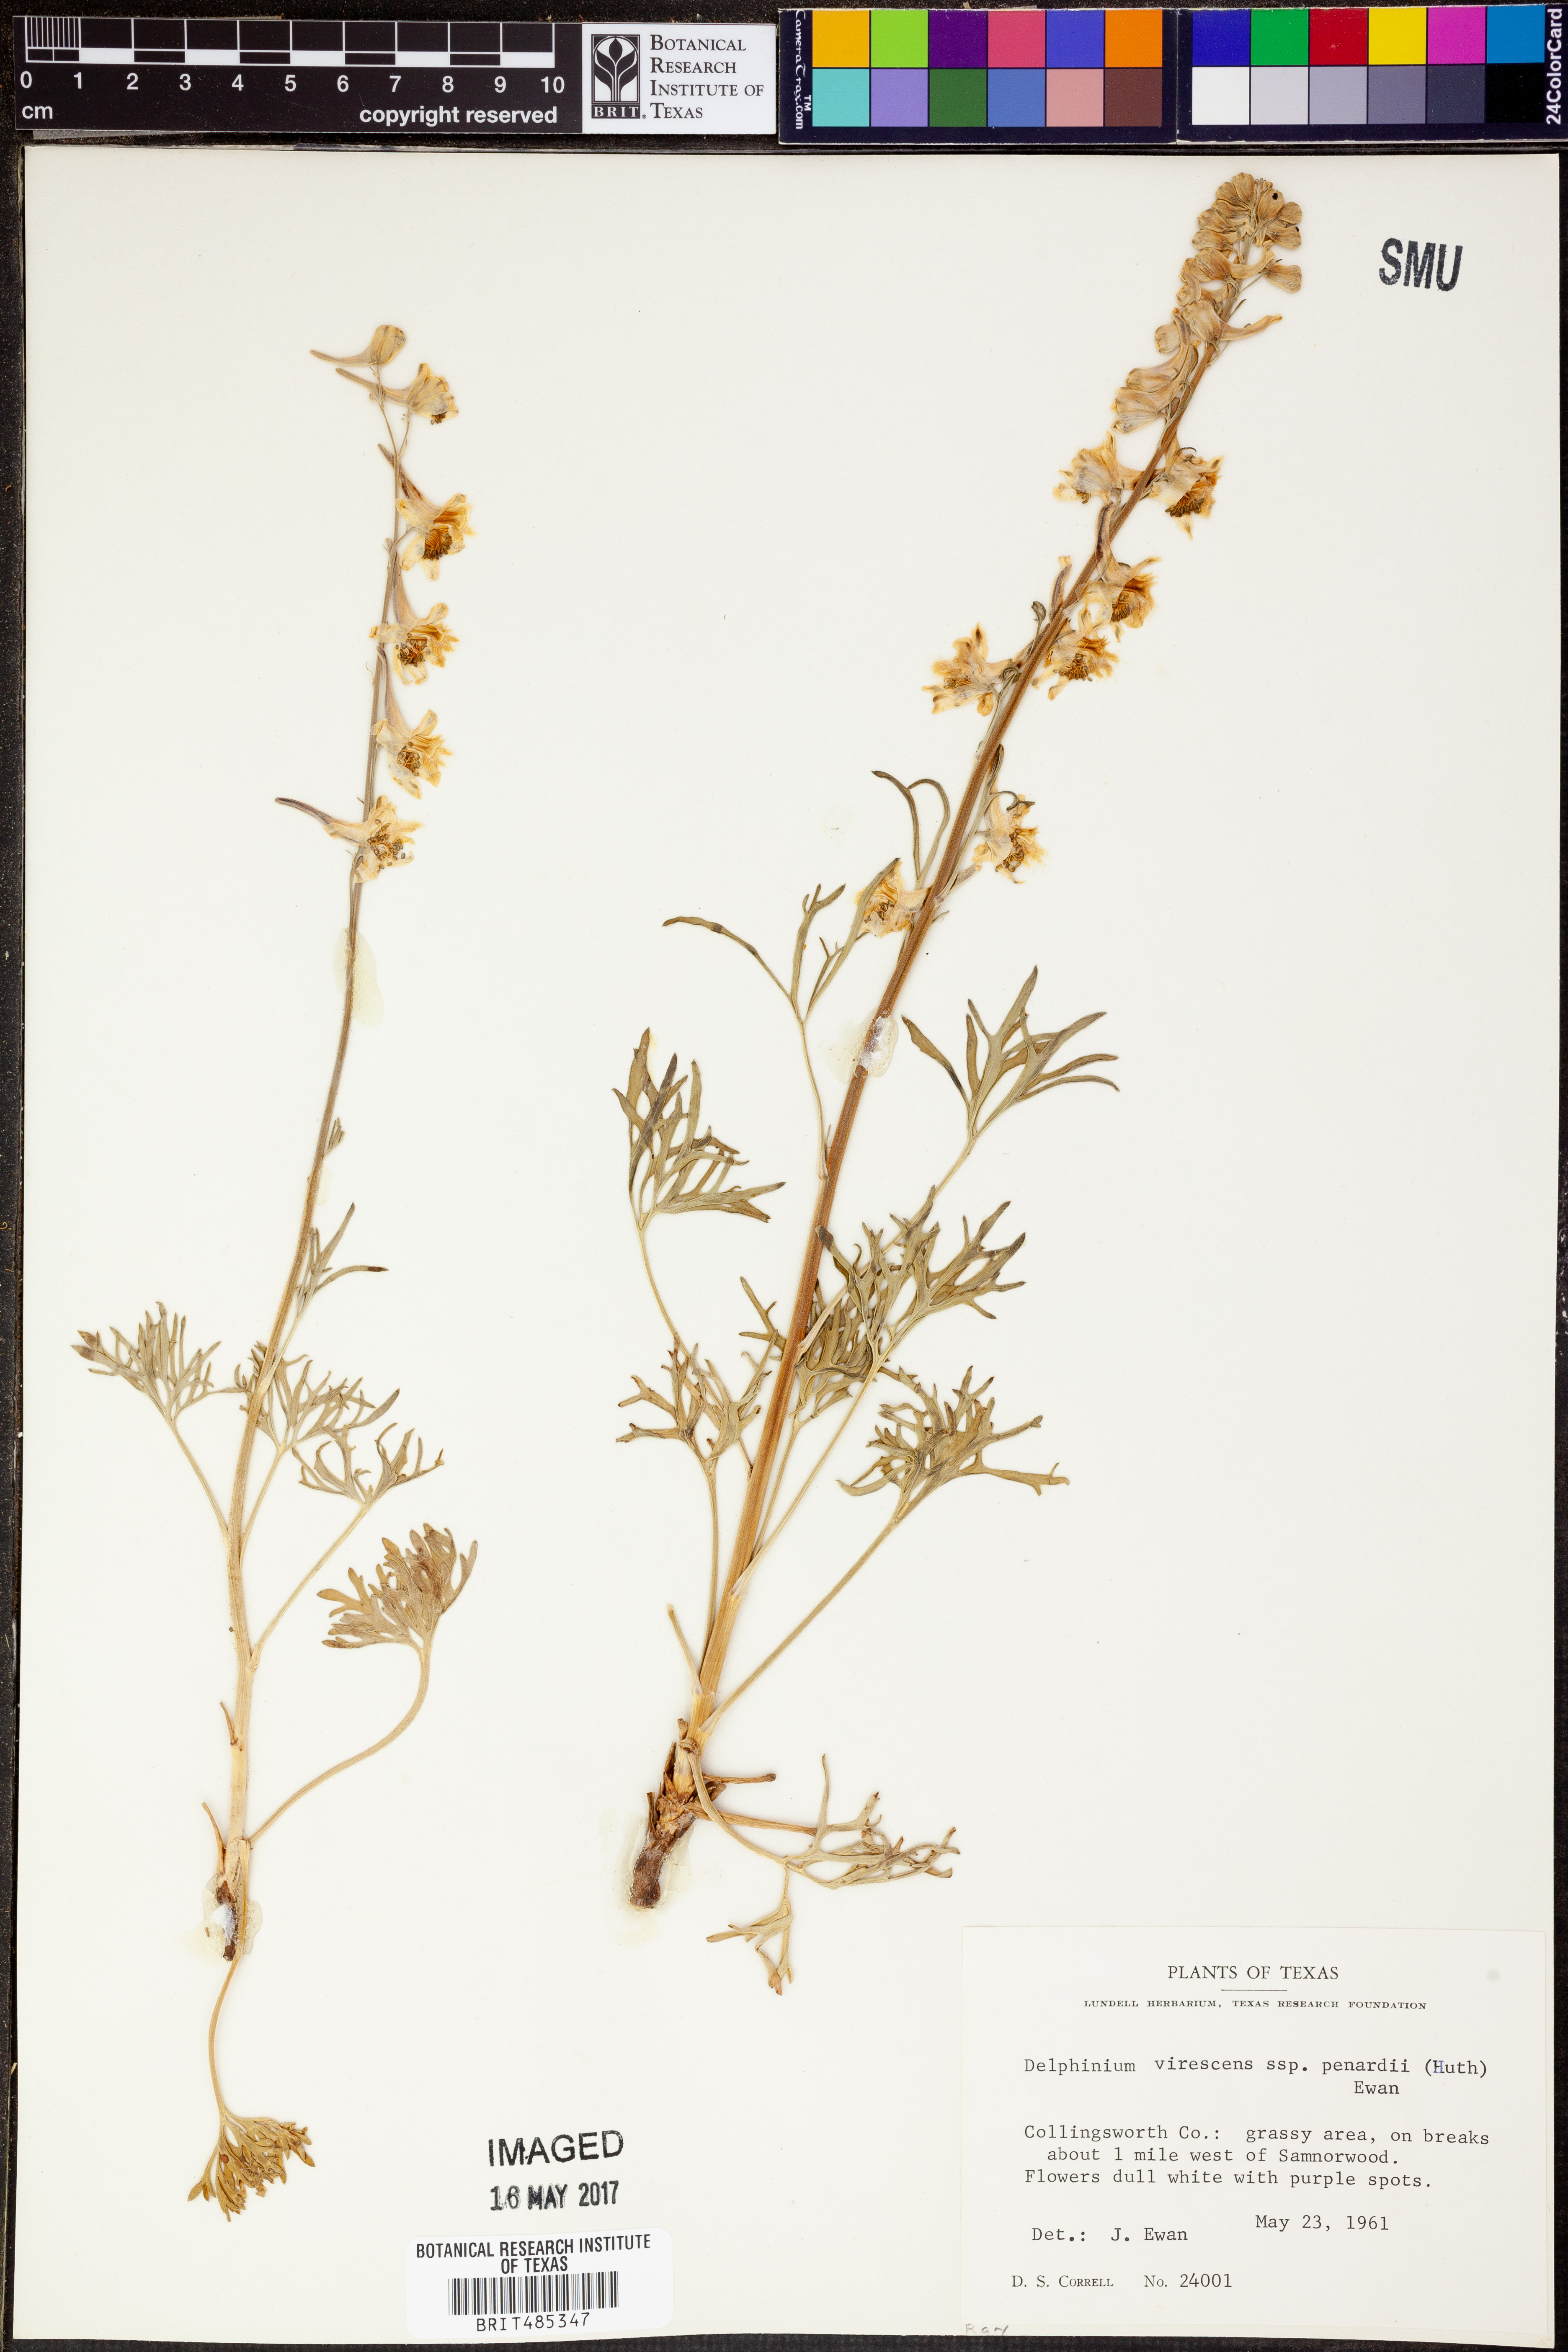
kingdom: Plantae
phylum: Tracheophyta
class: Magnoliopsida
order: Ranunculales
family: Ranunculaceae
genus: Delphinium
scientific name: Delphinium carolinianum
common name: Carolina larkspur
